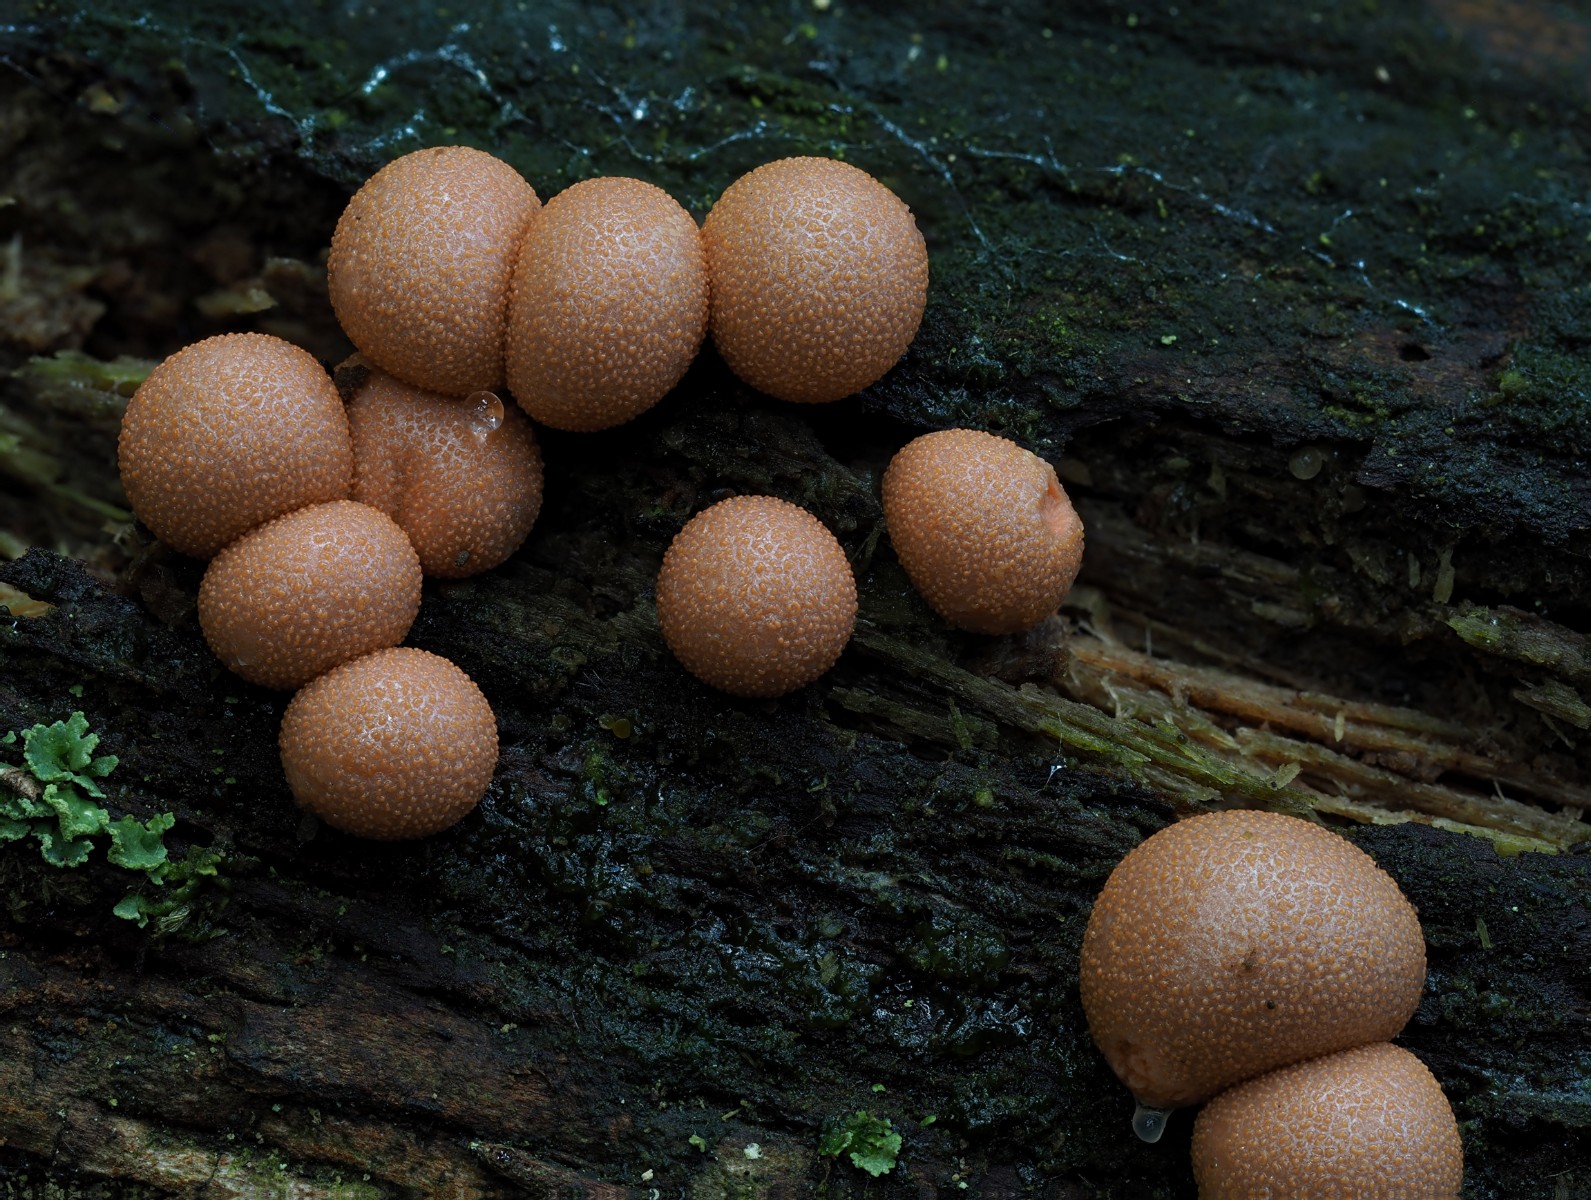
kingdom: Protozoa
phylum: Mycetozoa
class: Myxomycetes
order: Cribrariales
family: Tubiferaceae
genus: Lycogala
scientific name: Lycogala epidendrum
